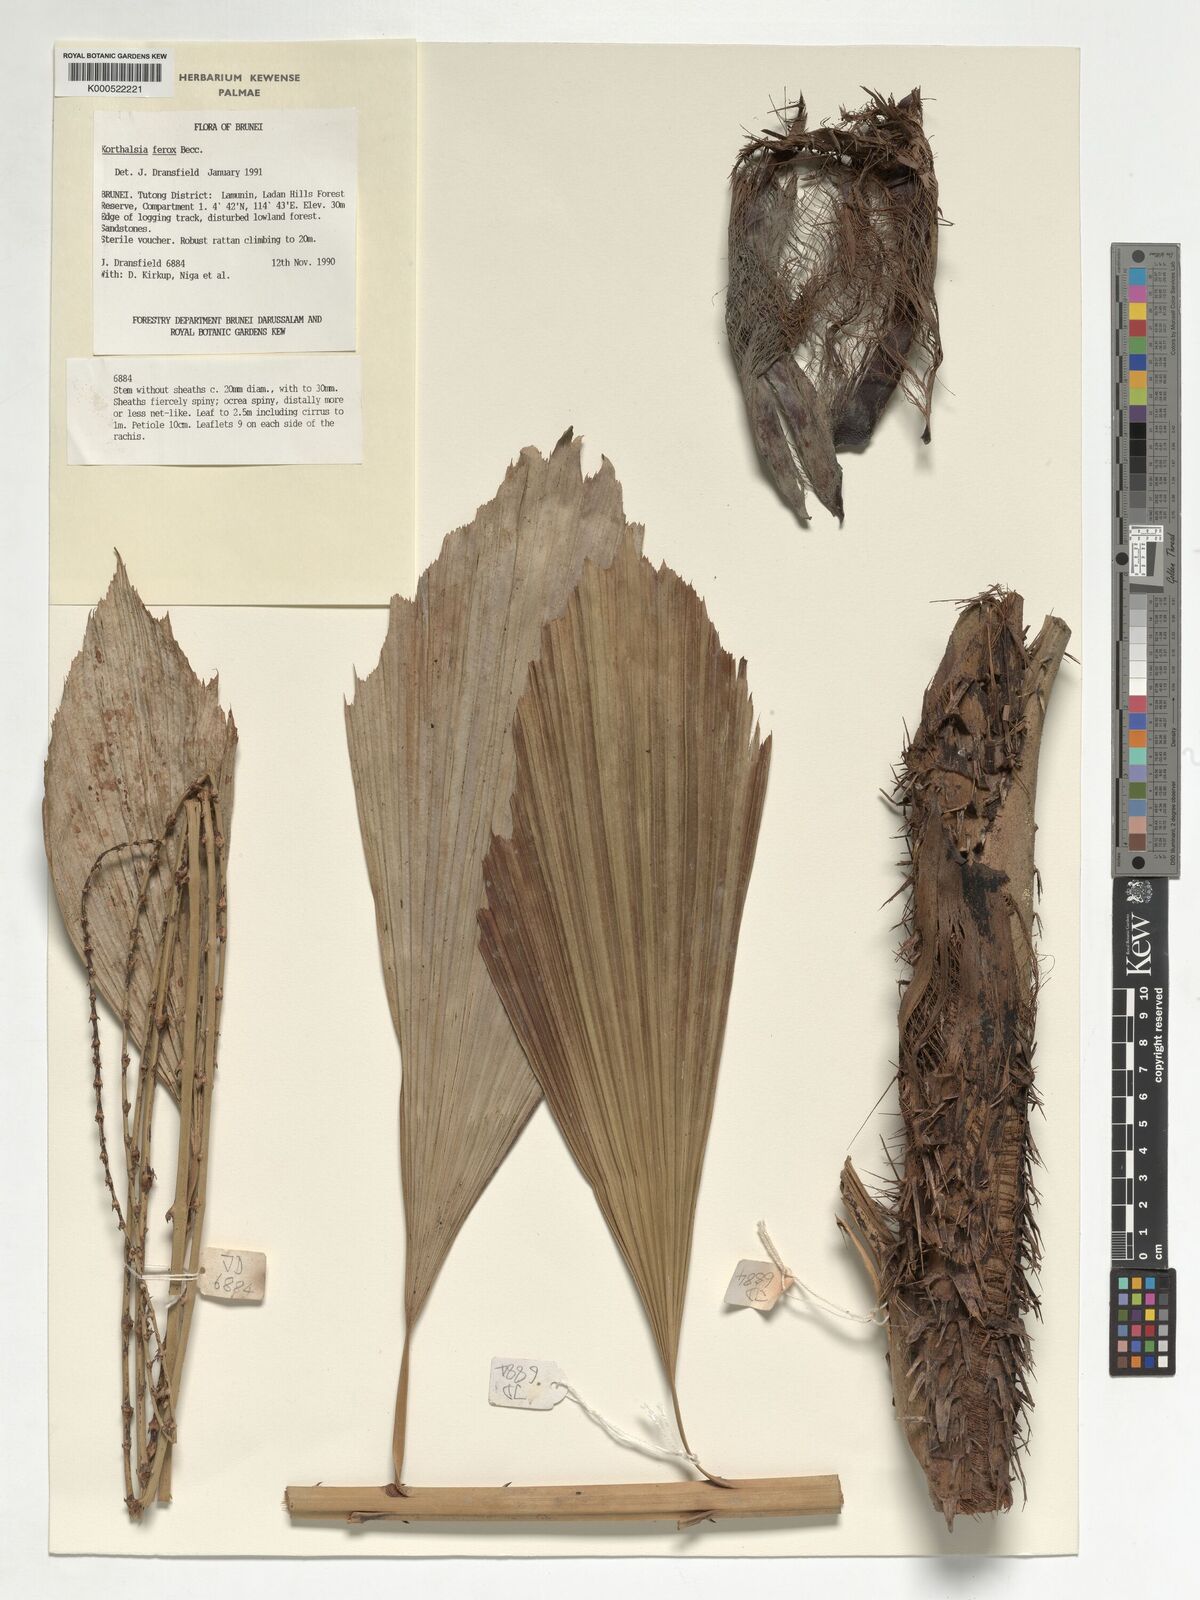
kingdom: Plantae
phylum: Tracheophyta
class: Liliopsida
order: Arecales
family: Arecaceae
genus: Korthalsia
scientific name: Korthalsia ferox
